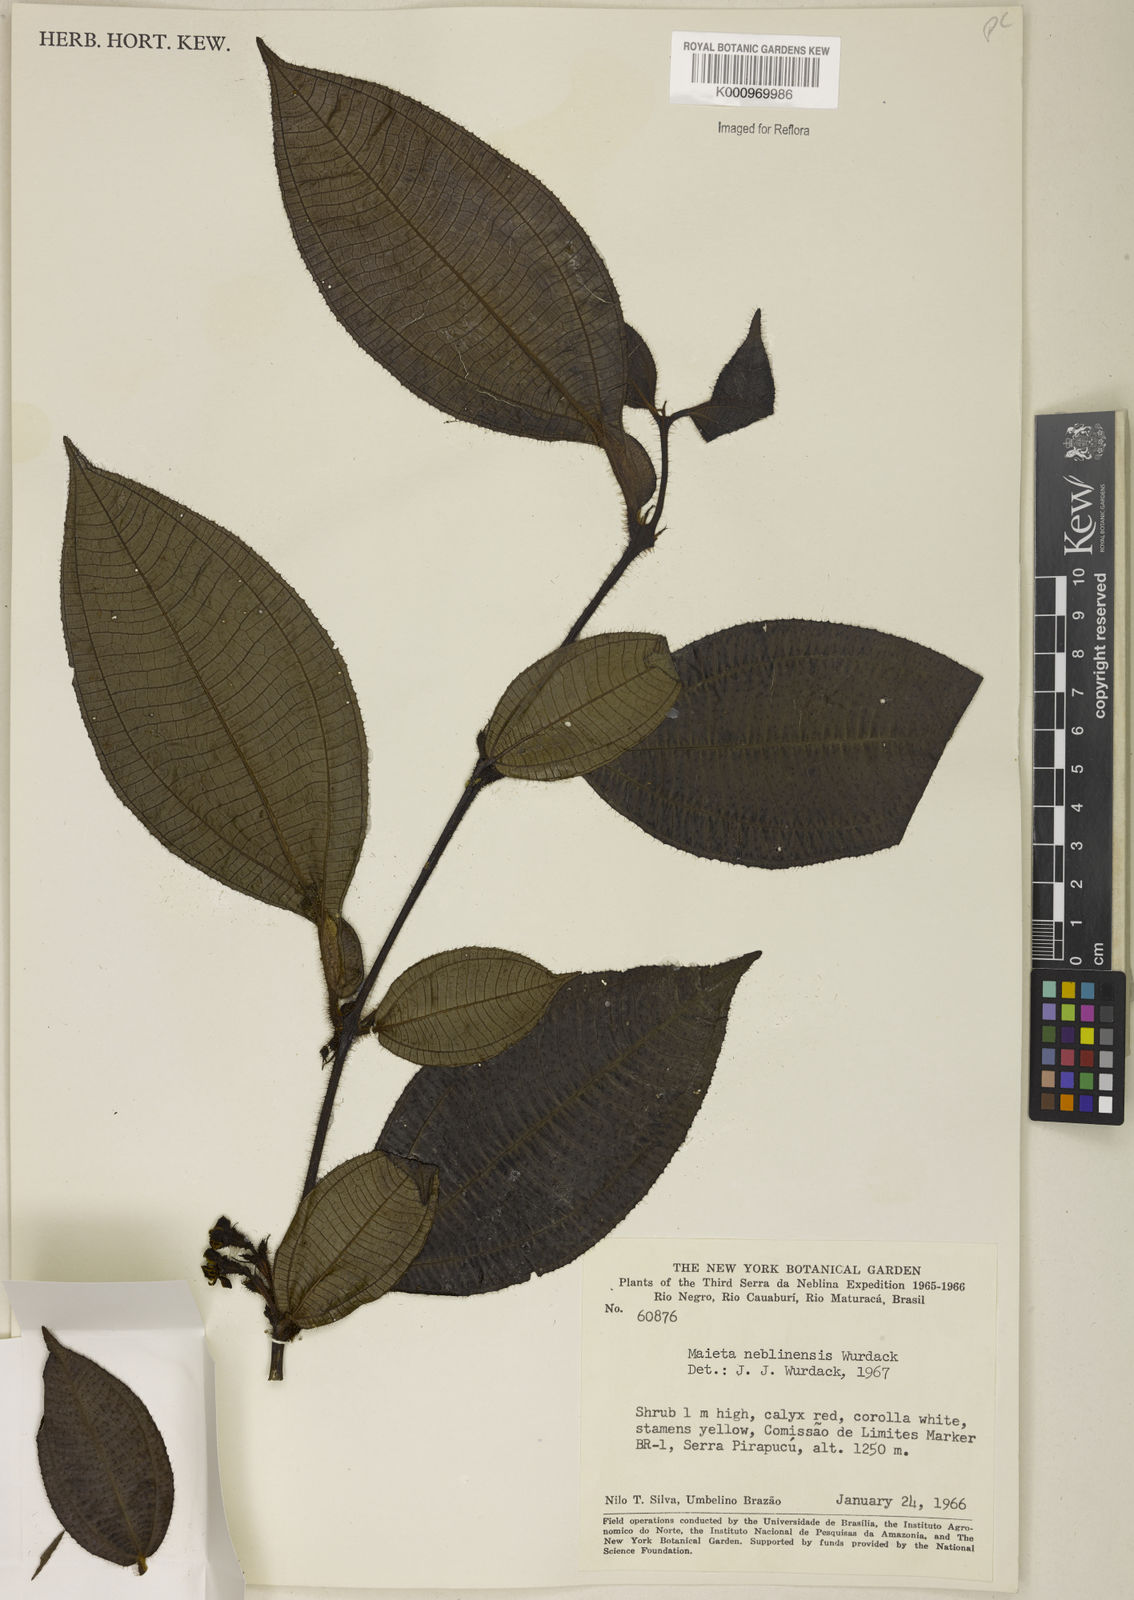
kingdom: Plantae
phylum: Tracheophyta
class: Magnoliopsida
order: Myrtales
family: Melastomataceae
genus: Miconia
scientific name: Miconia alatiflora
